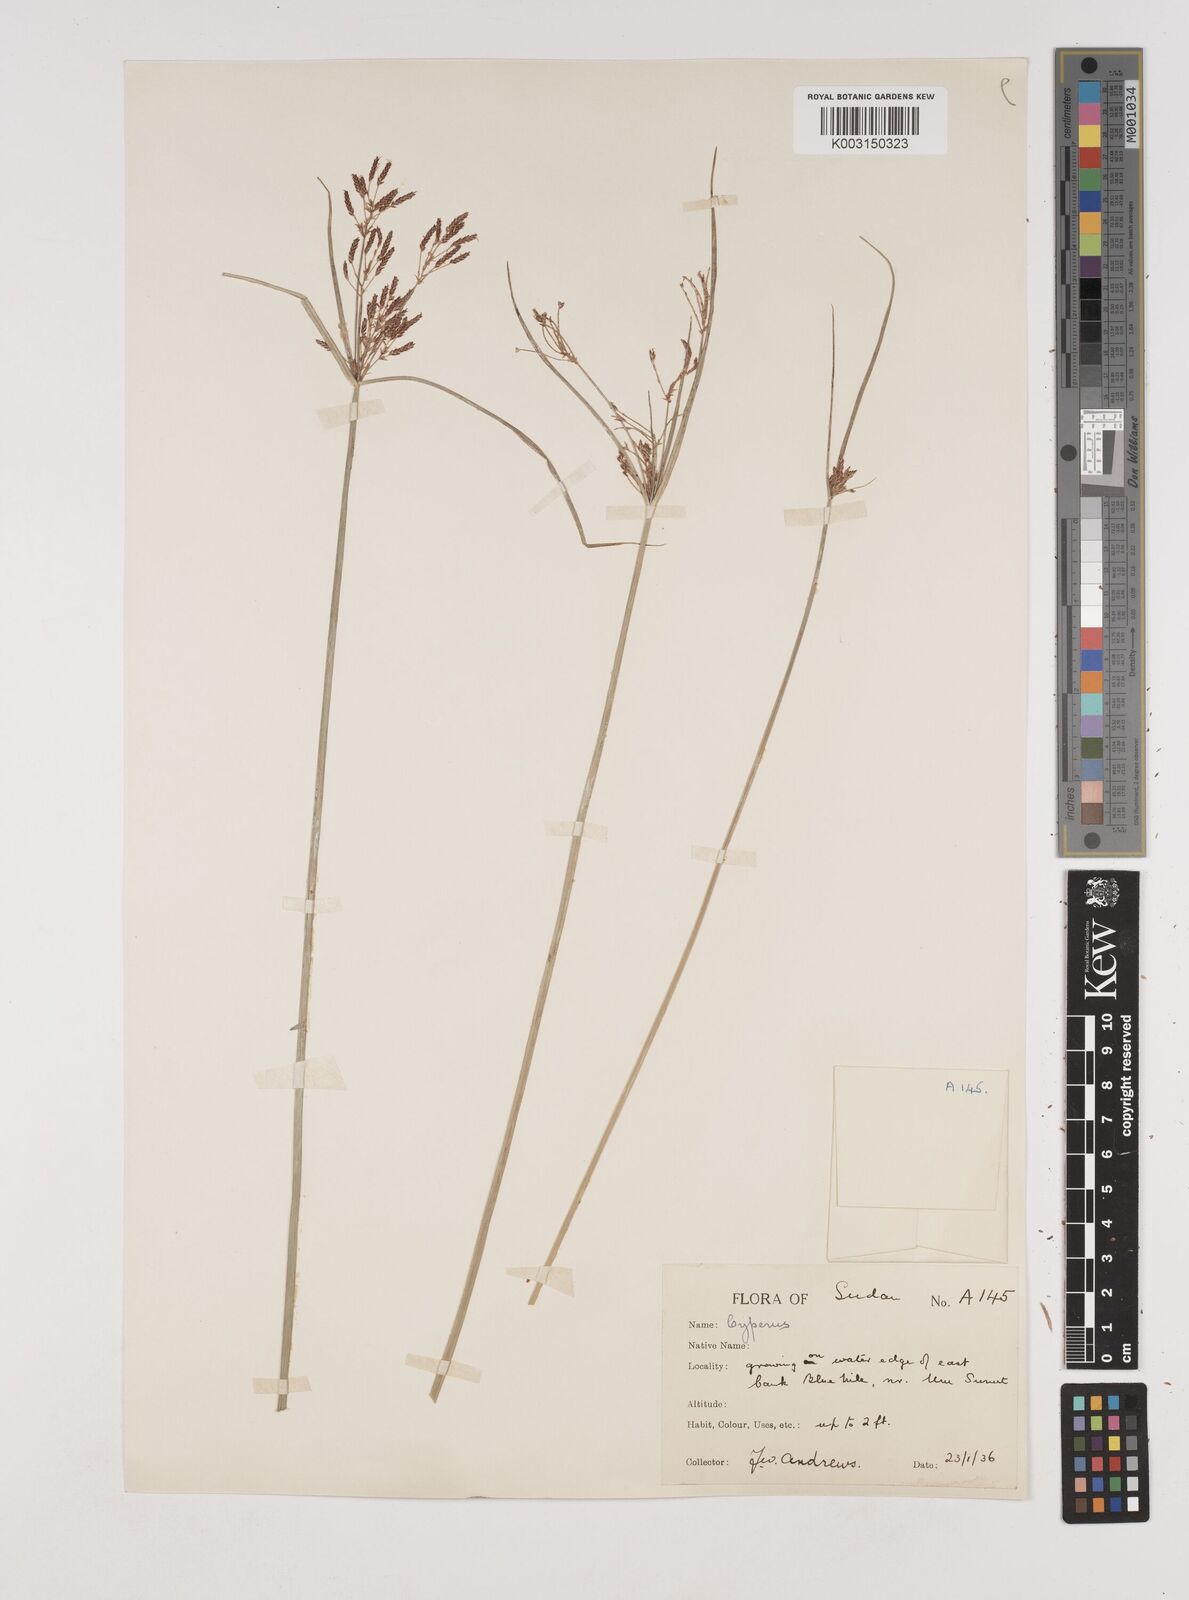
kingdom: Plantae
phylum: Tracheophyta
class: Liliopsida
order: Poales
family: Cyperaceae
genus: Cyperus
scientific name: Cyperus schimperianus
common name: Schimper flatsedge
